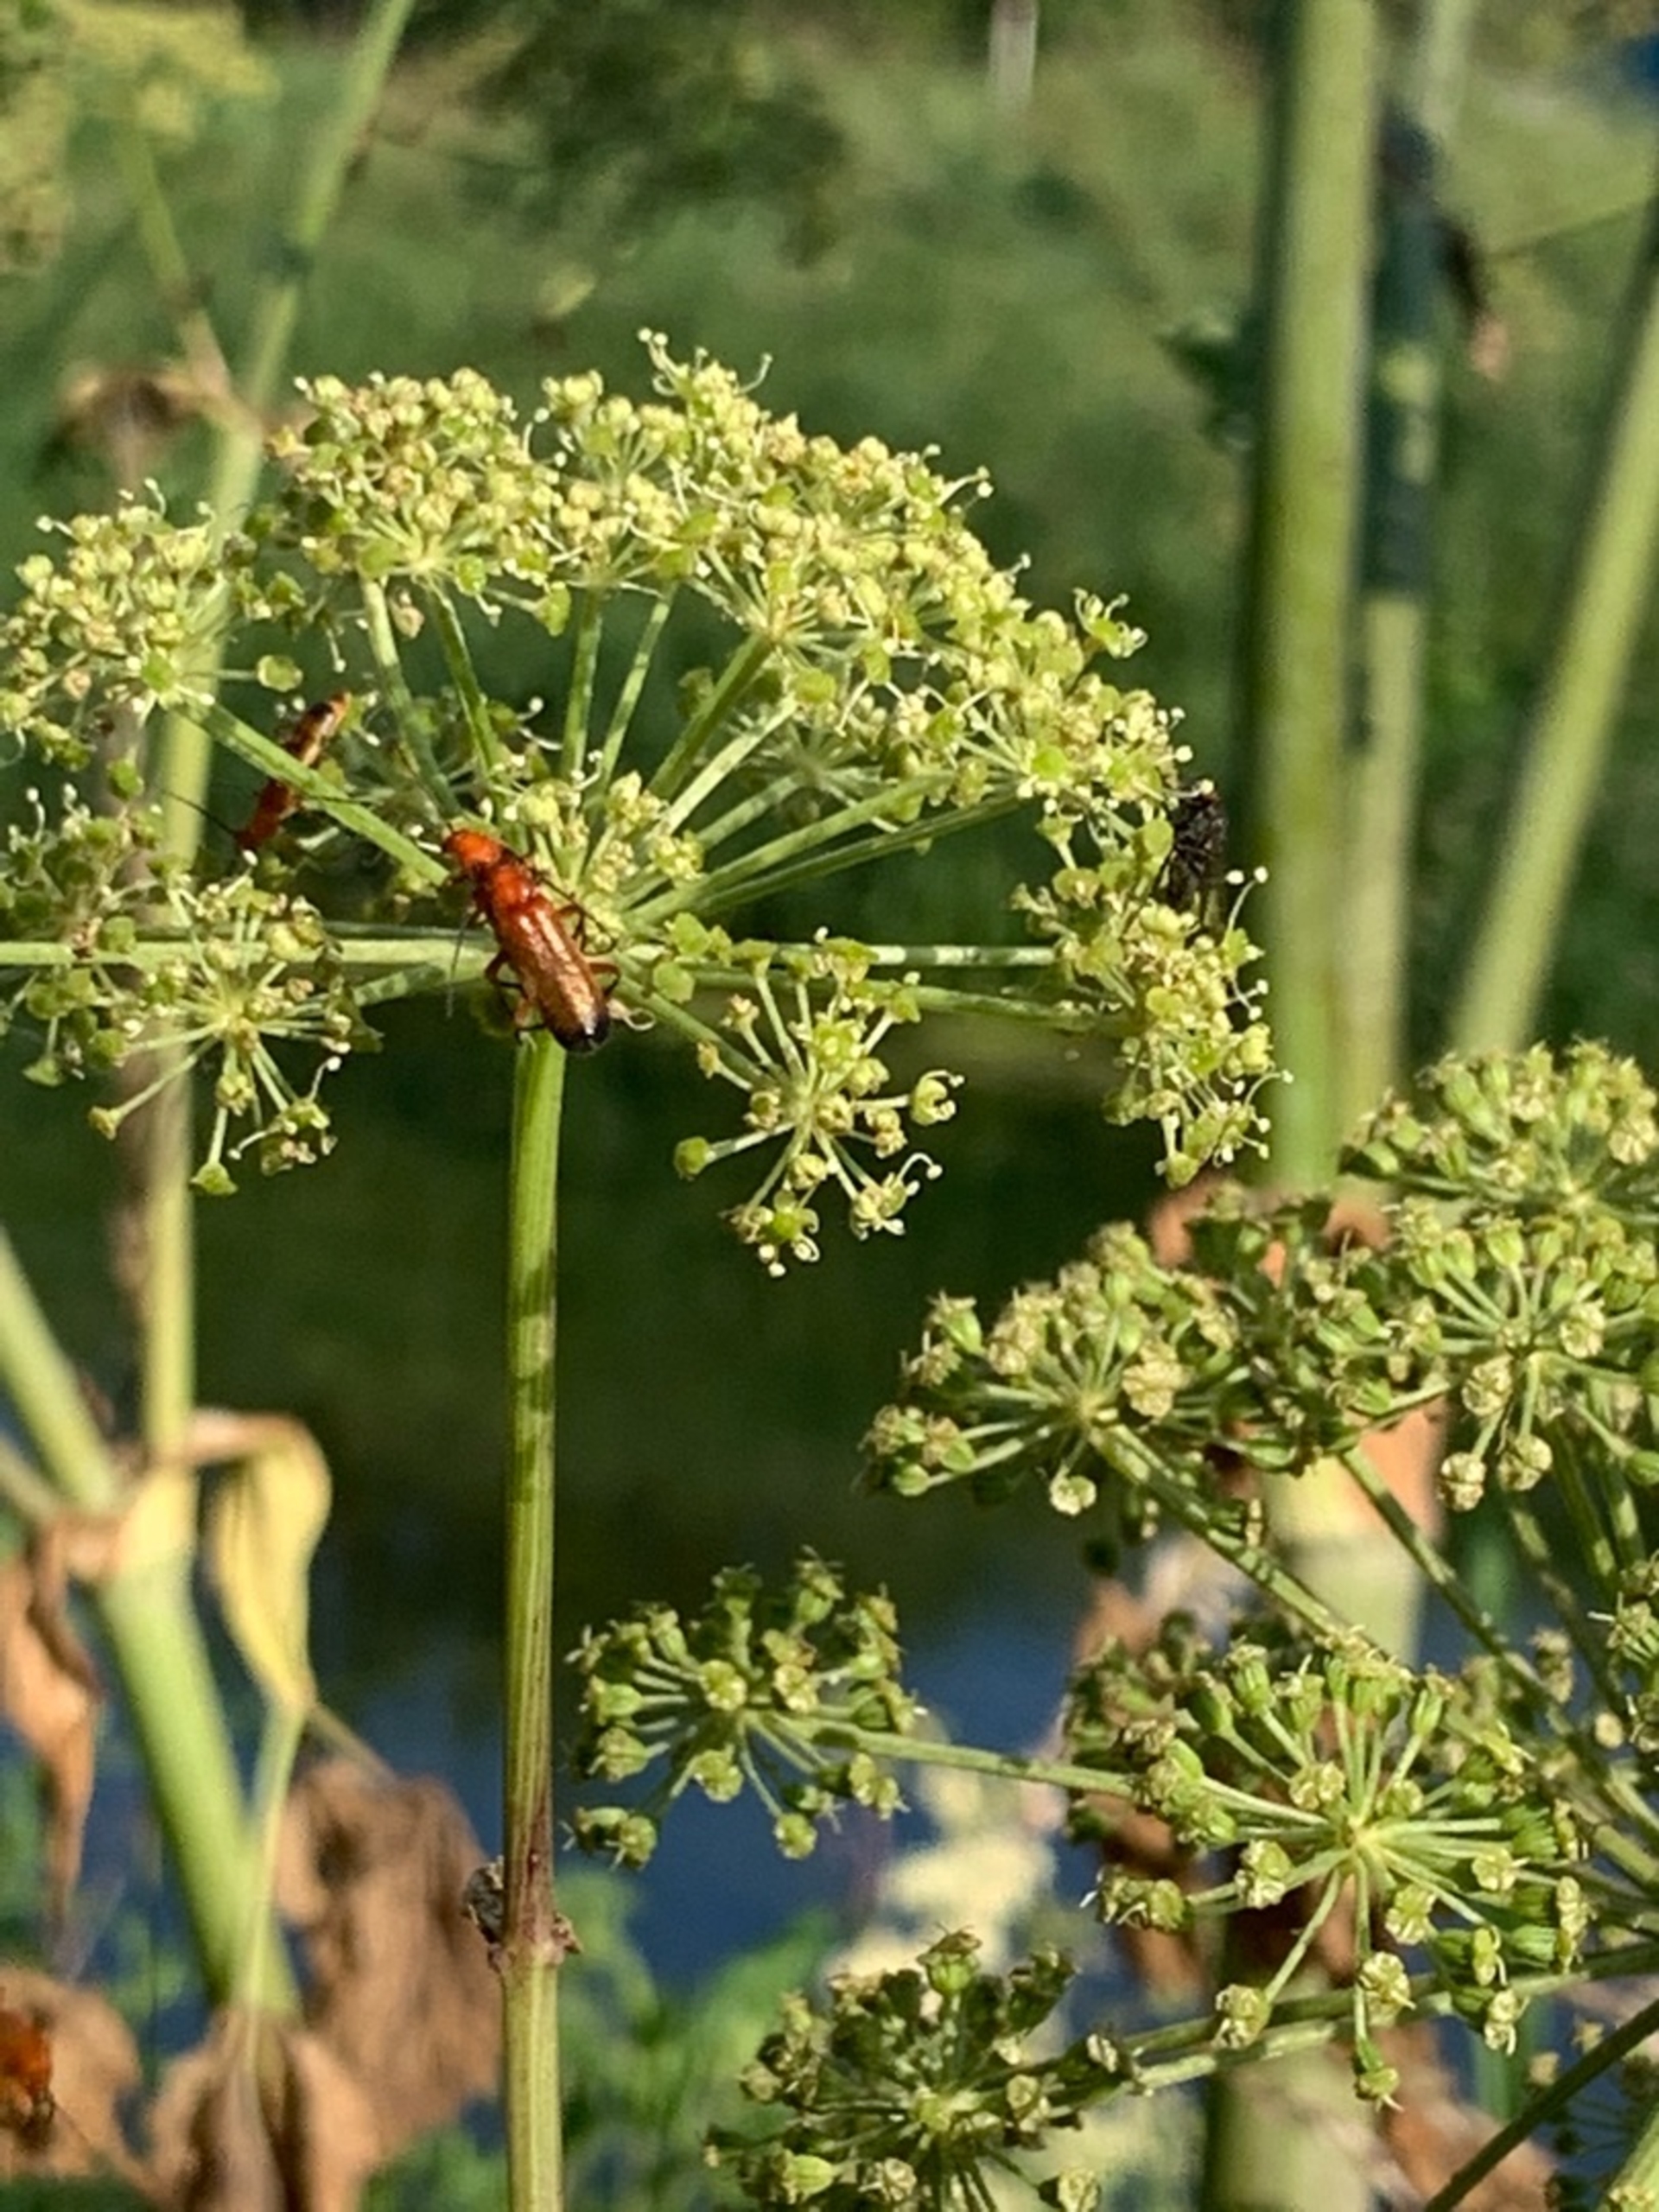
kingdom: Animalia
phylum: Arthropoda
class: Insecta
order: Coleoptera
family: Cantharidae
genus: Rhagonycha
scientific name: Rhagonycha fulva
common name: Præstebille
